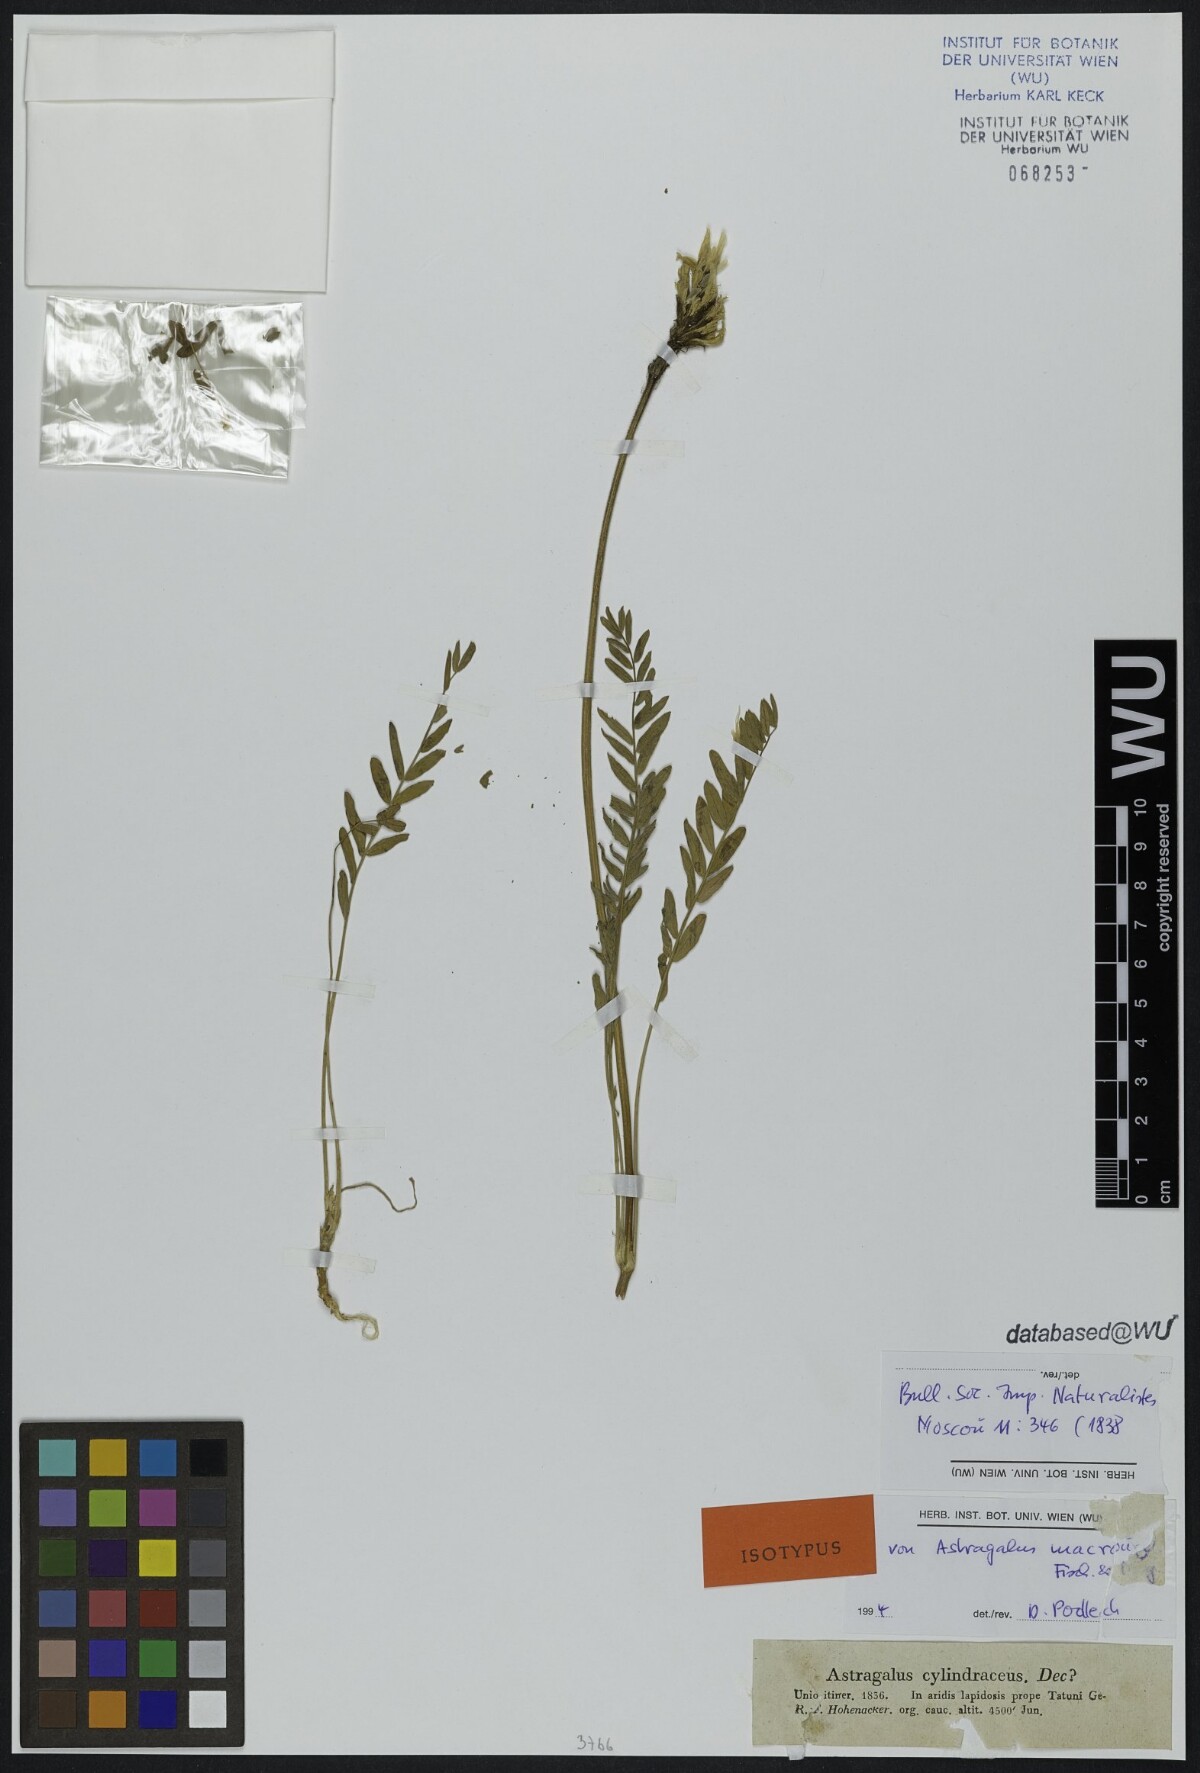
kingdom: Plantae
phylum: Tracheophyta
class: Magnoliopsida
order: Fabales
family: Fabaceae
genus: Astragalus
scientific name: Astragalus macrourus
